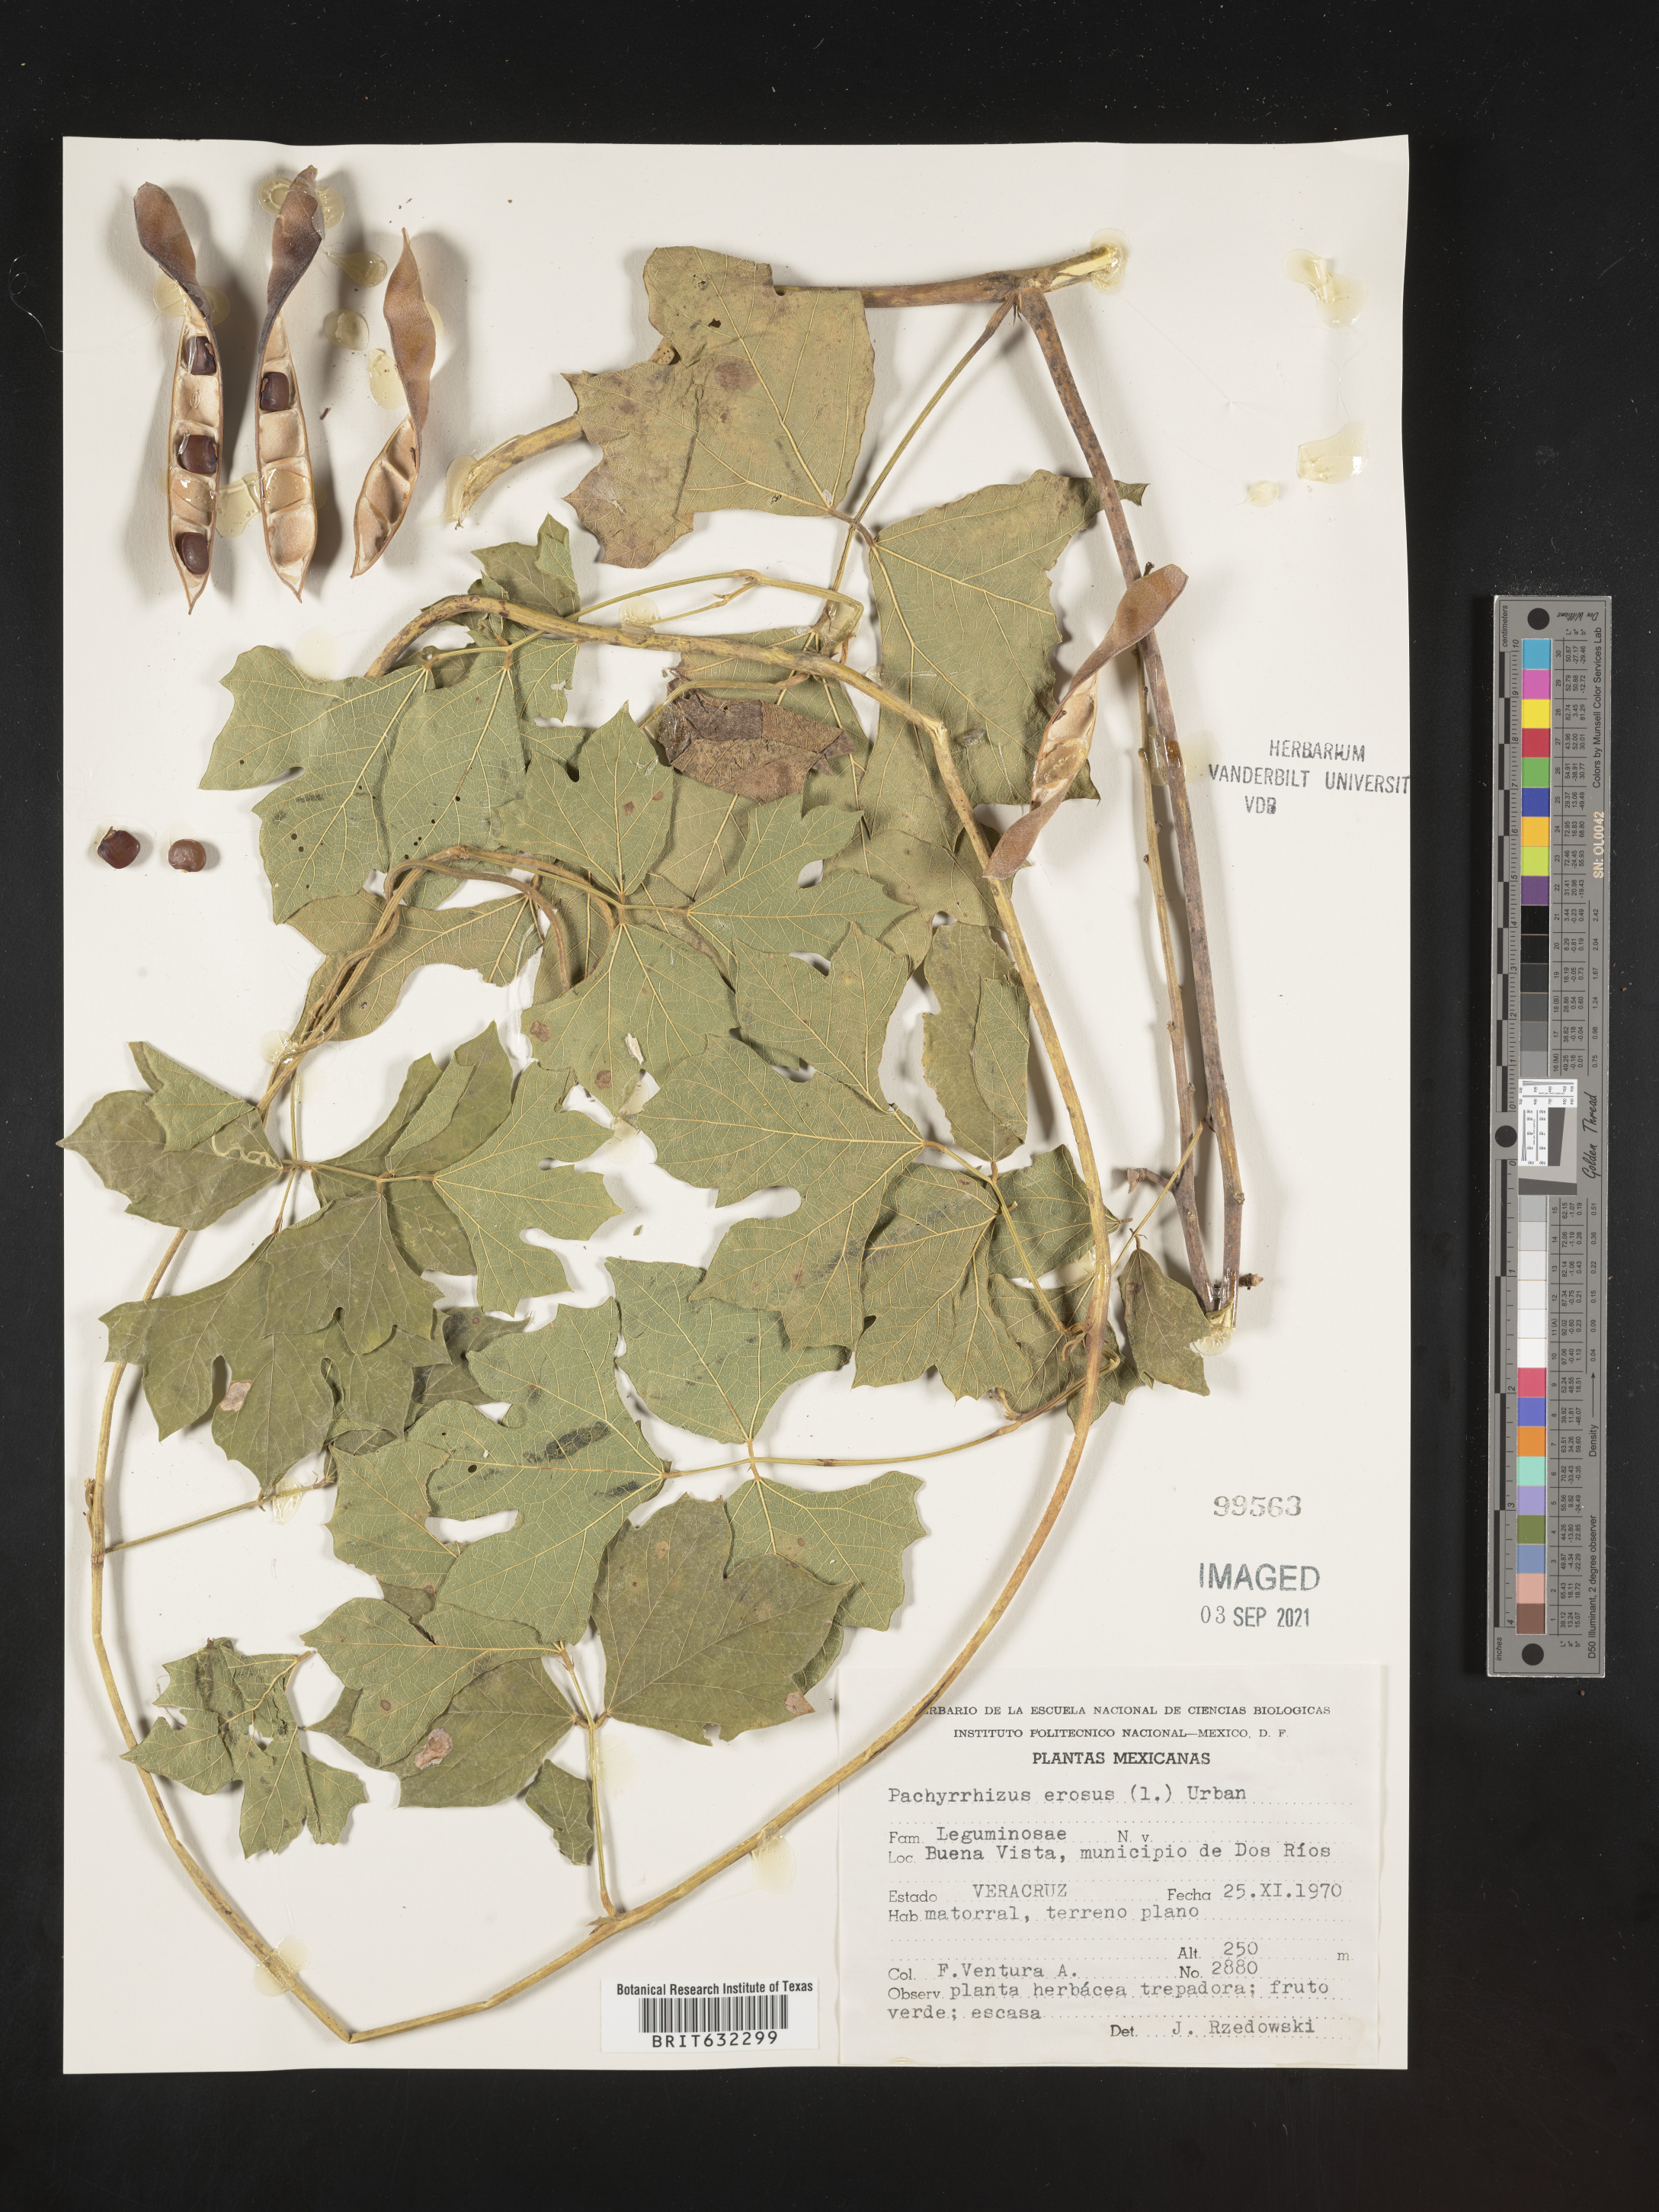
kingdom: Plantae
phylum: Tracheophyta
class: Magnoliopsida
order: Fabales
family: Fabaceae
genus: Pachyrhizus
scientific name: Pachyrhizus erosus
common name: Yam bean
